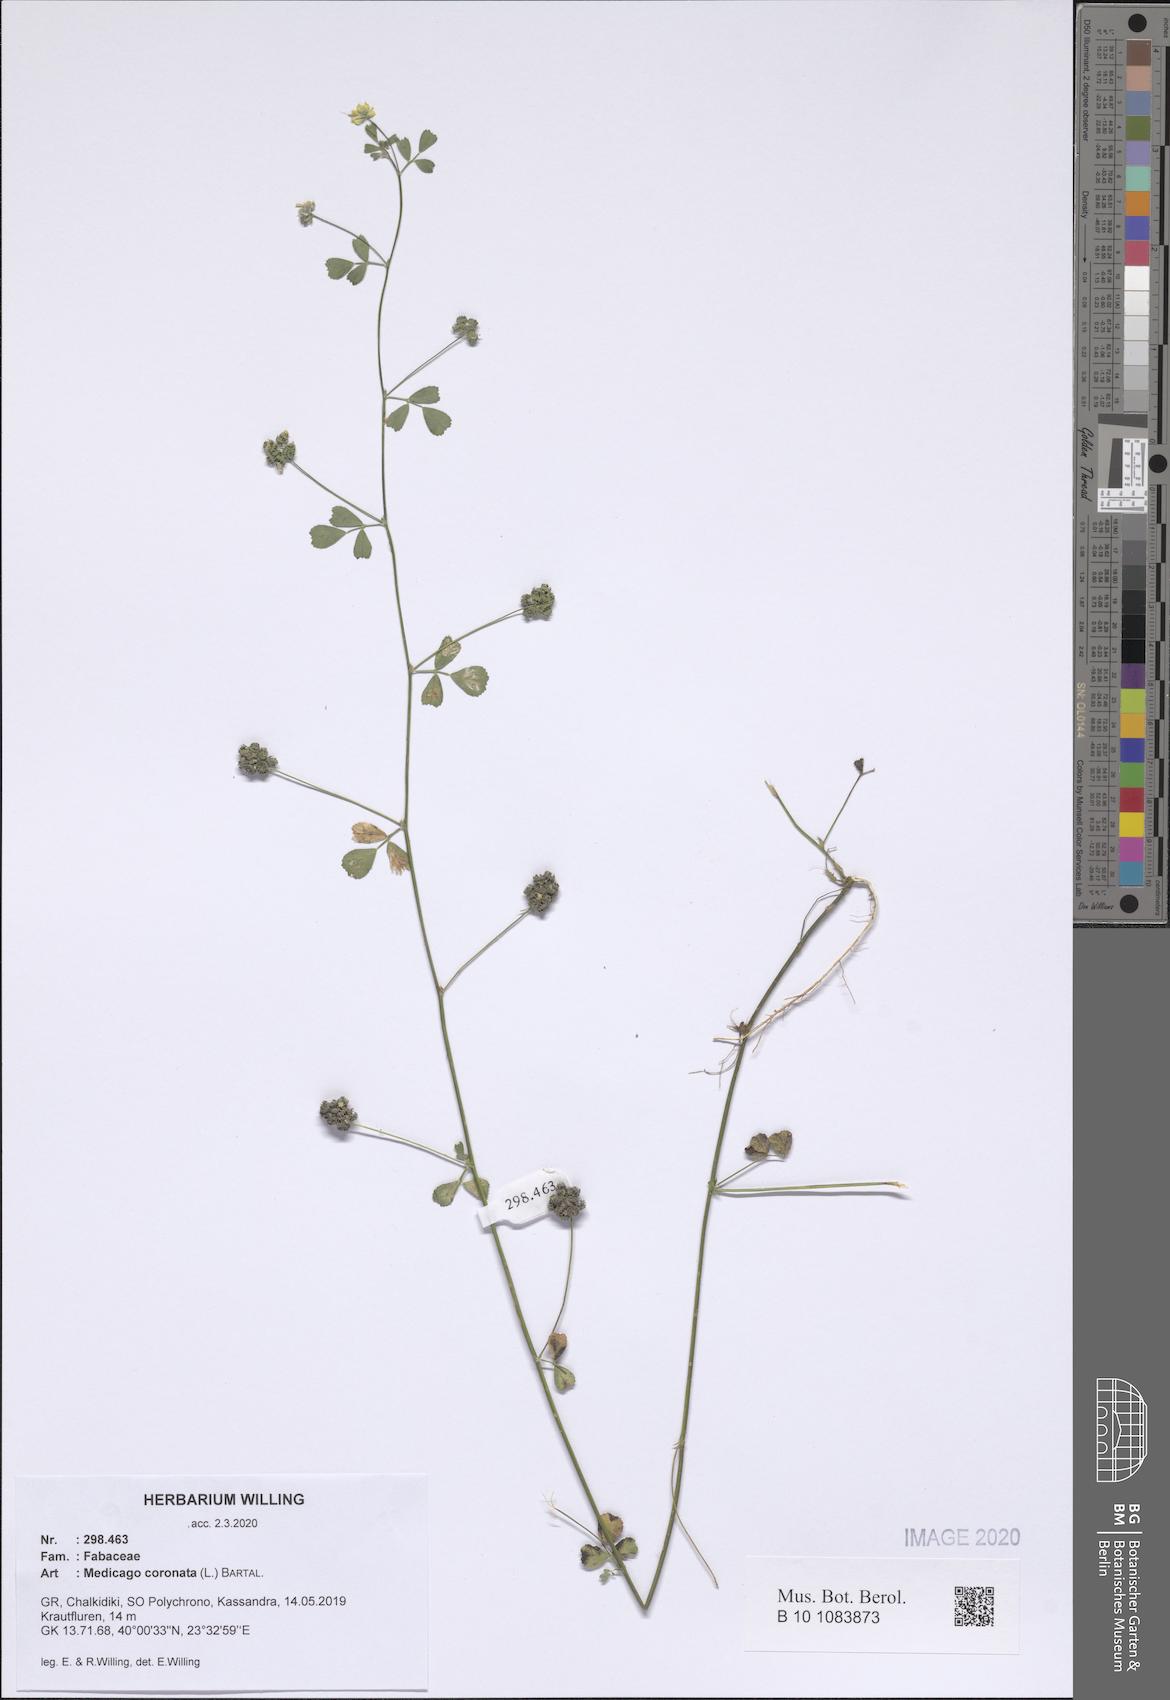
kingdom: Plantae
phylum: Tracheophyta
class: Magnoliopsida
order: Fabales
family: Fabaceae
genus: Medicago
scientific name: Medicago coronata
